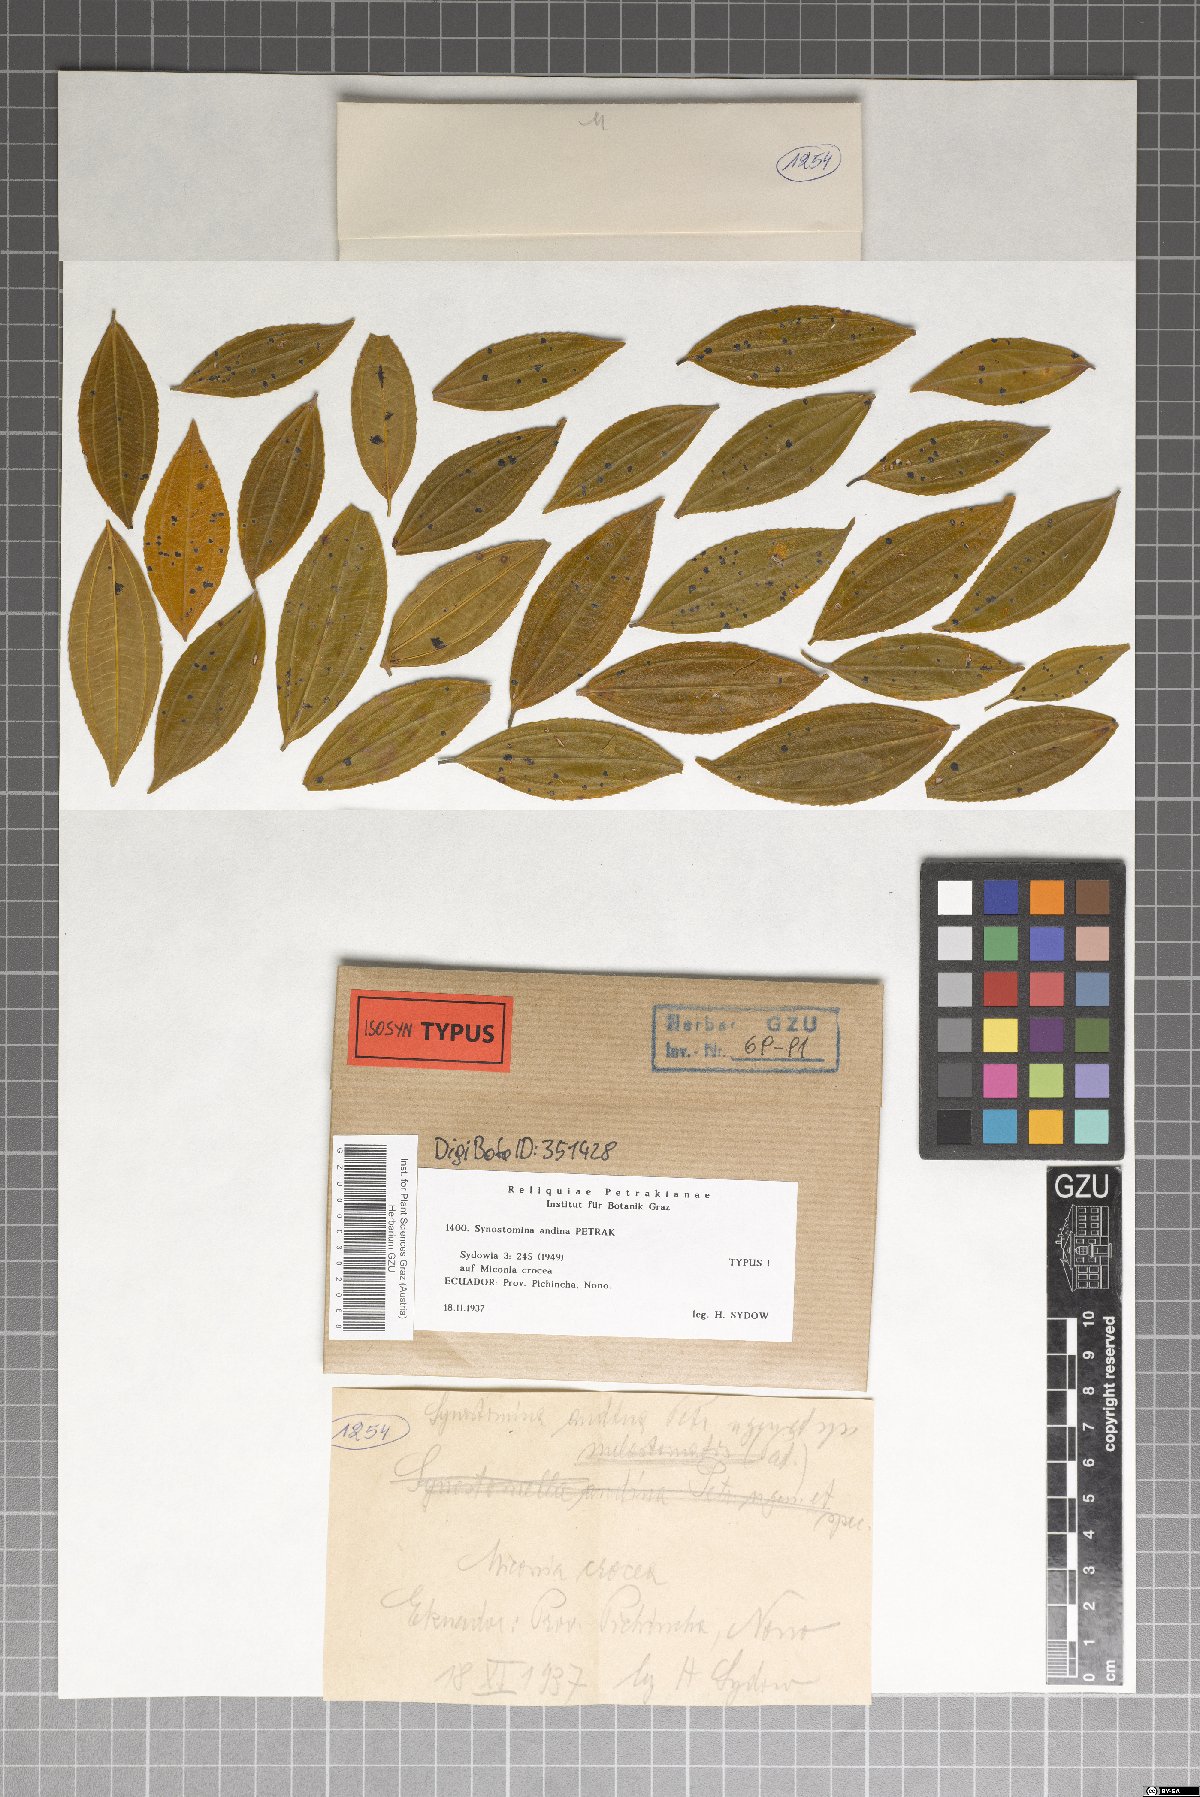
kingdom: Fungi
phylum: Ascomycota
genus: Synostomina
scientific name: Synostomina andina
